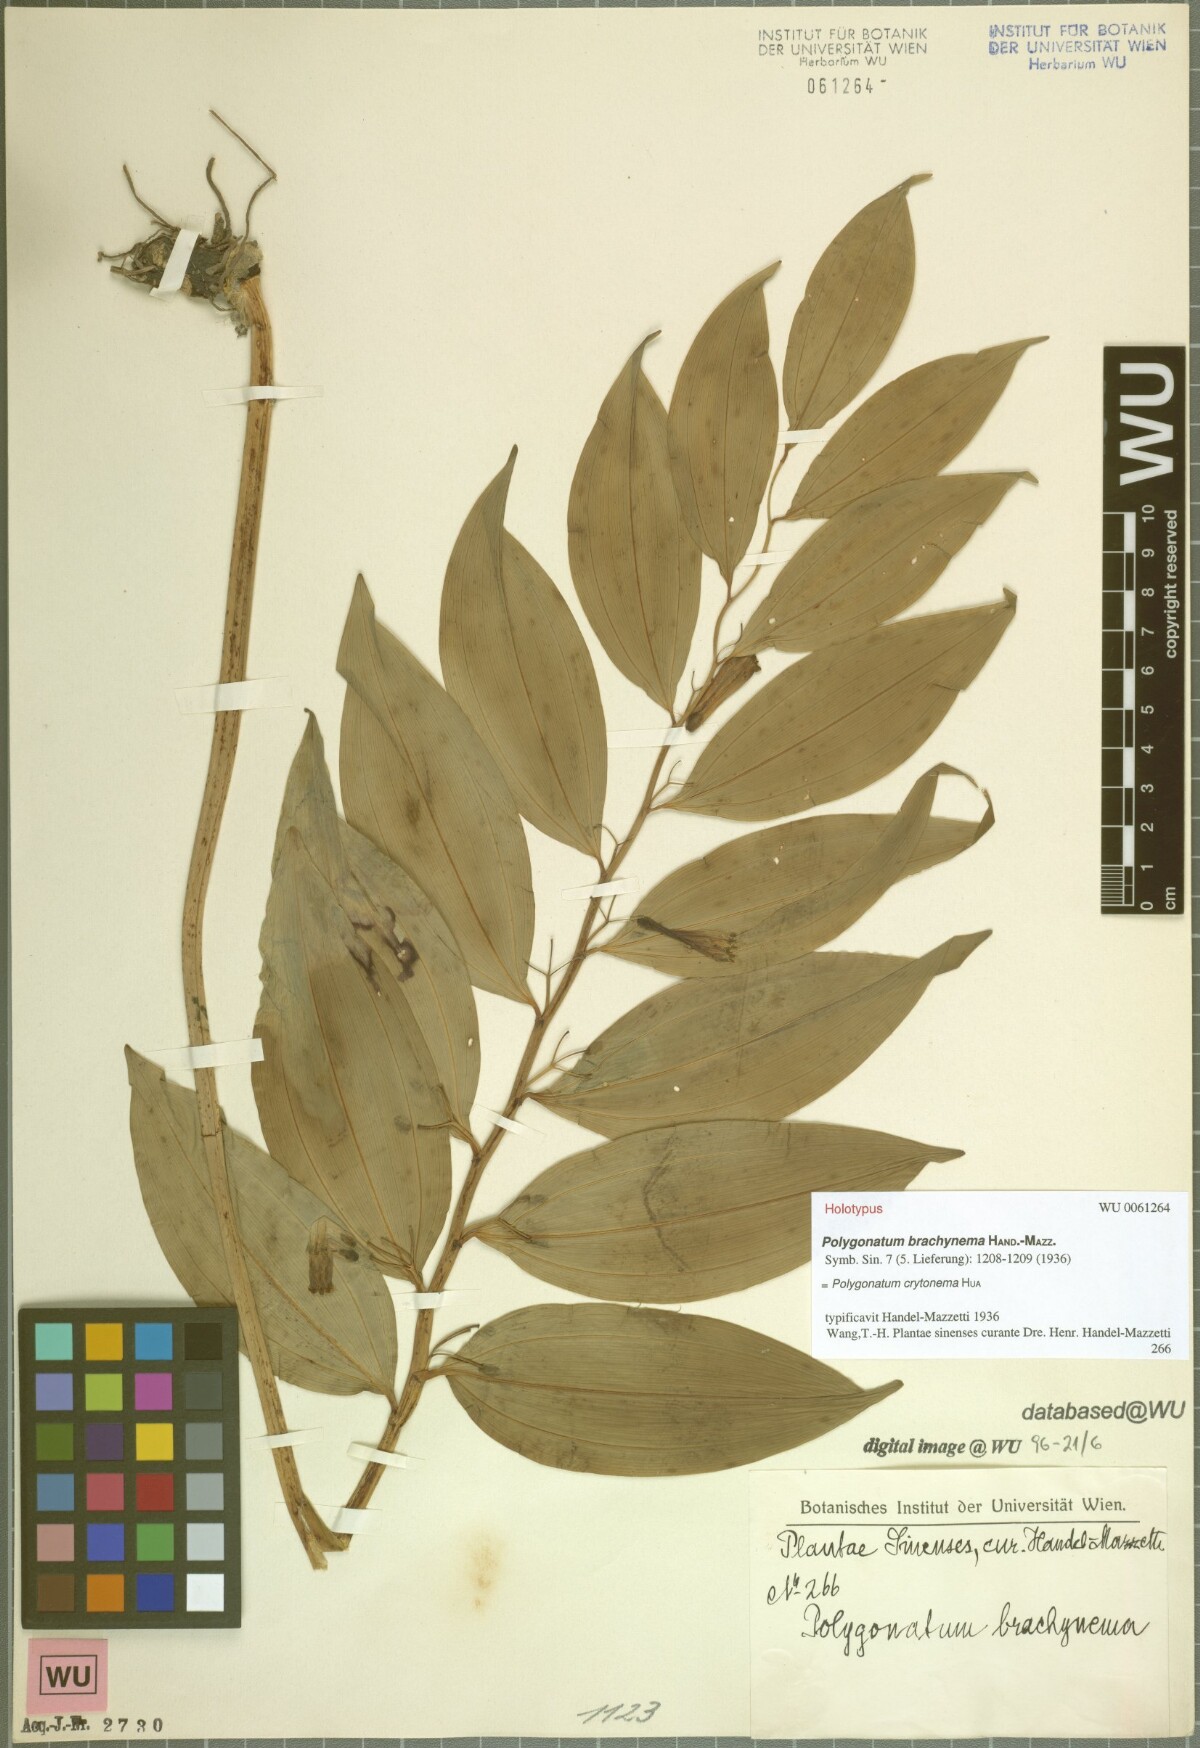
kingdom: Plantae
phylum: Tracheophyta
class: Liliopsida
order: Asparagales
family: Asparagaceae
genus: Polygonatum
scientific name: Polygonatum cyrtonema
